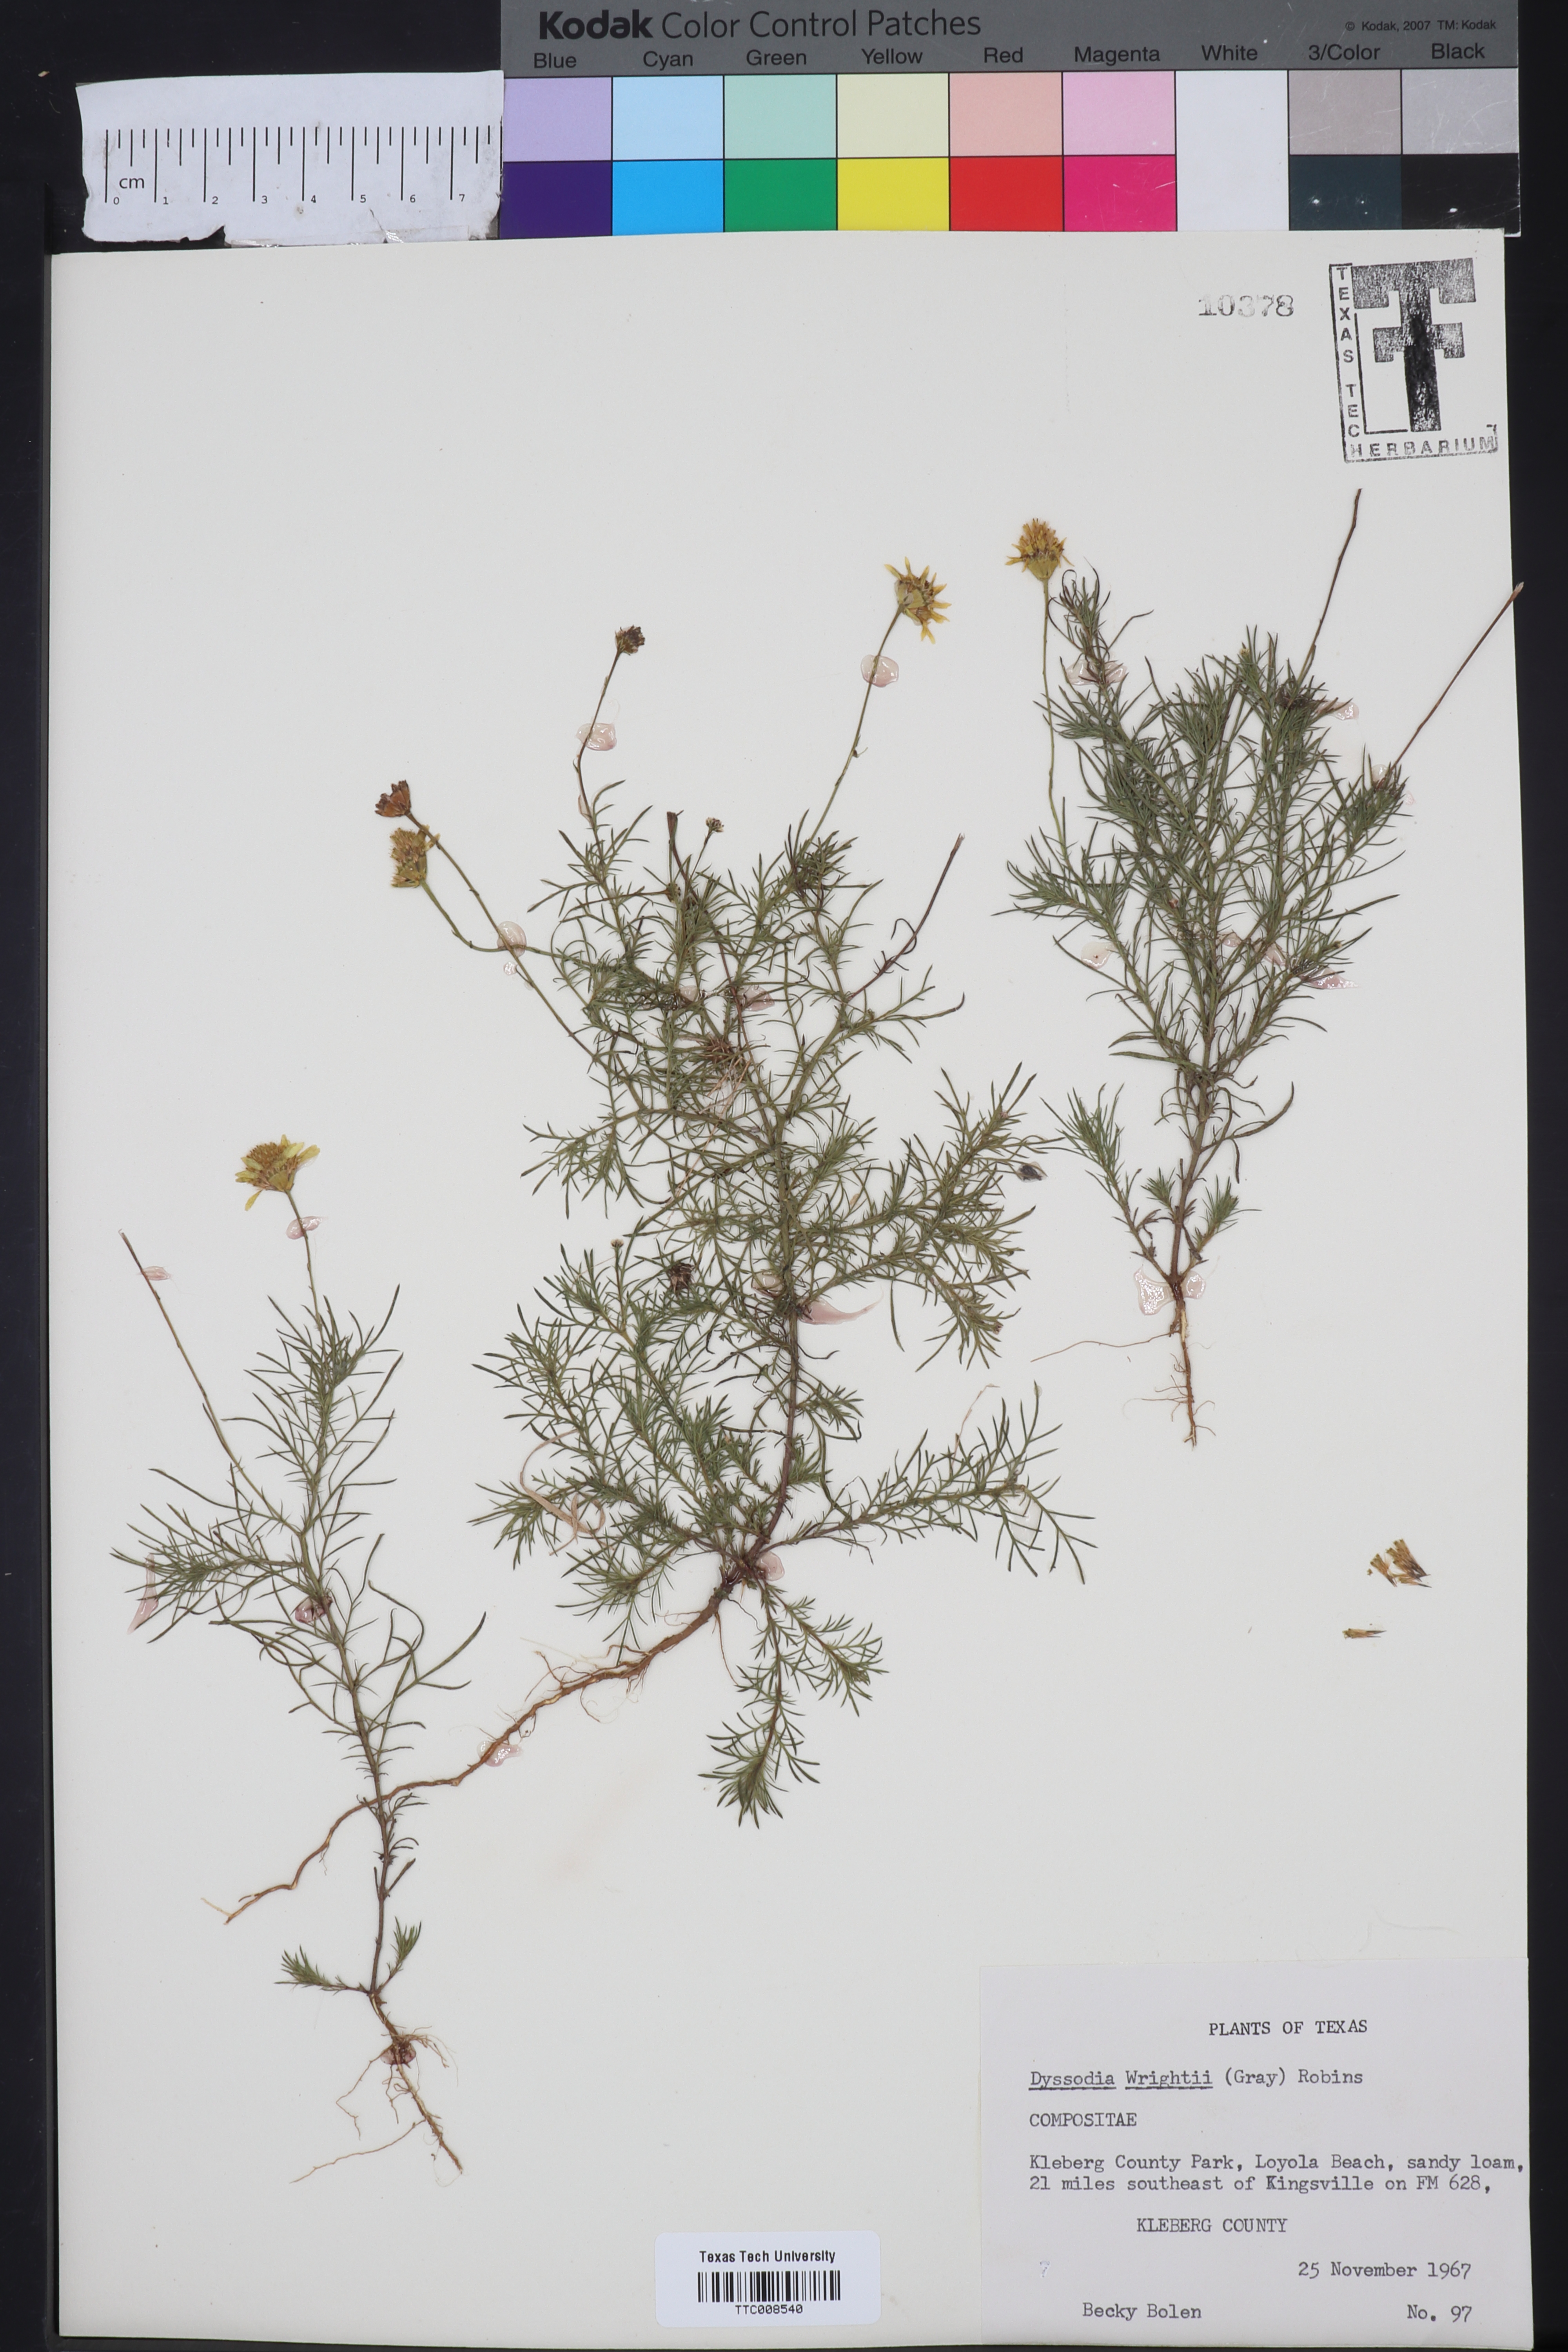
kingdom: Plantae
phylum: Tracheophyta
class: Magnoliopsida
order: Asterales
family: Asteraceae
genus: Thymophylla
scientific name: Thymophylla tenuiloba
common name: Dahlberg's daisy
